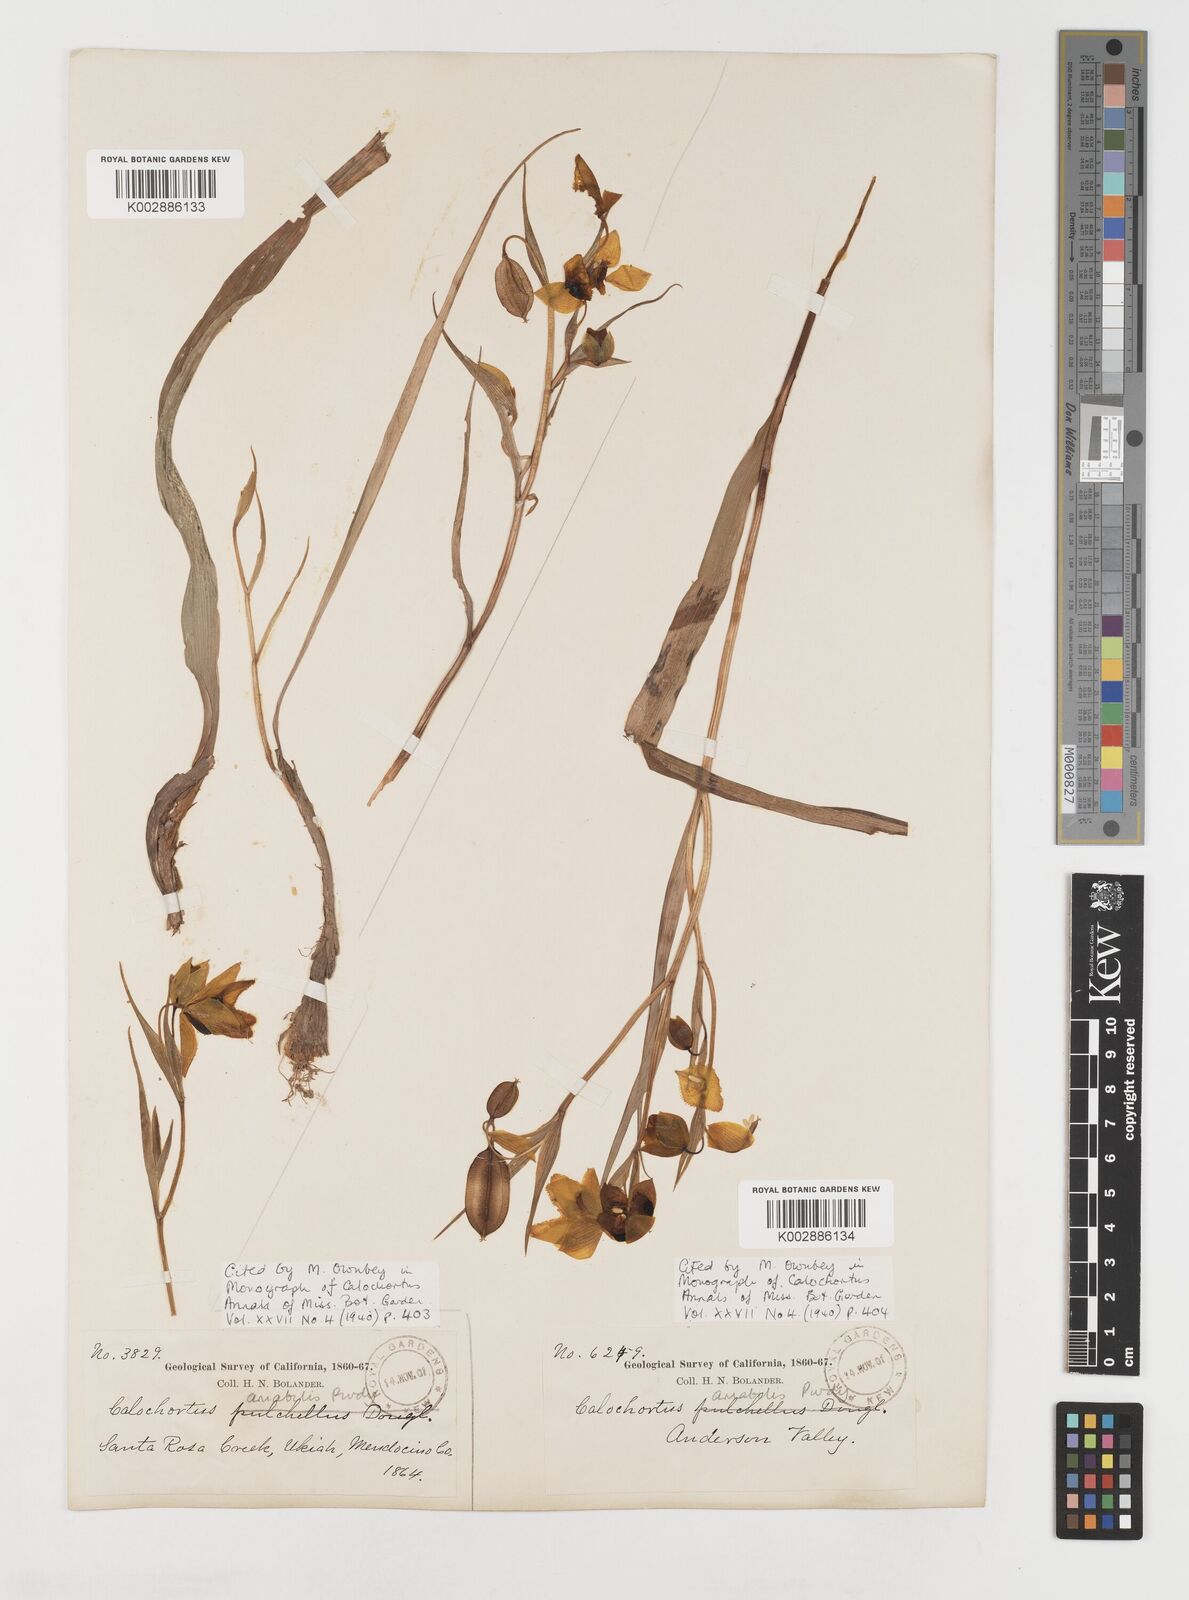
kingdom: Plantae
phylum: Tracheophyta
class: Liliopsida
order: Liliales
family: Liliaceae
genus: Calochortus
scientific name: Calochortus amabilis
